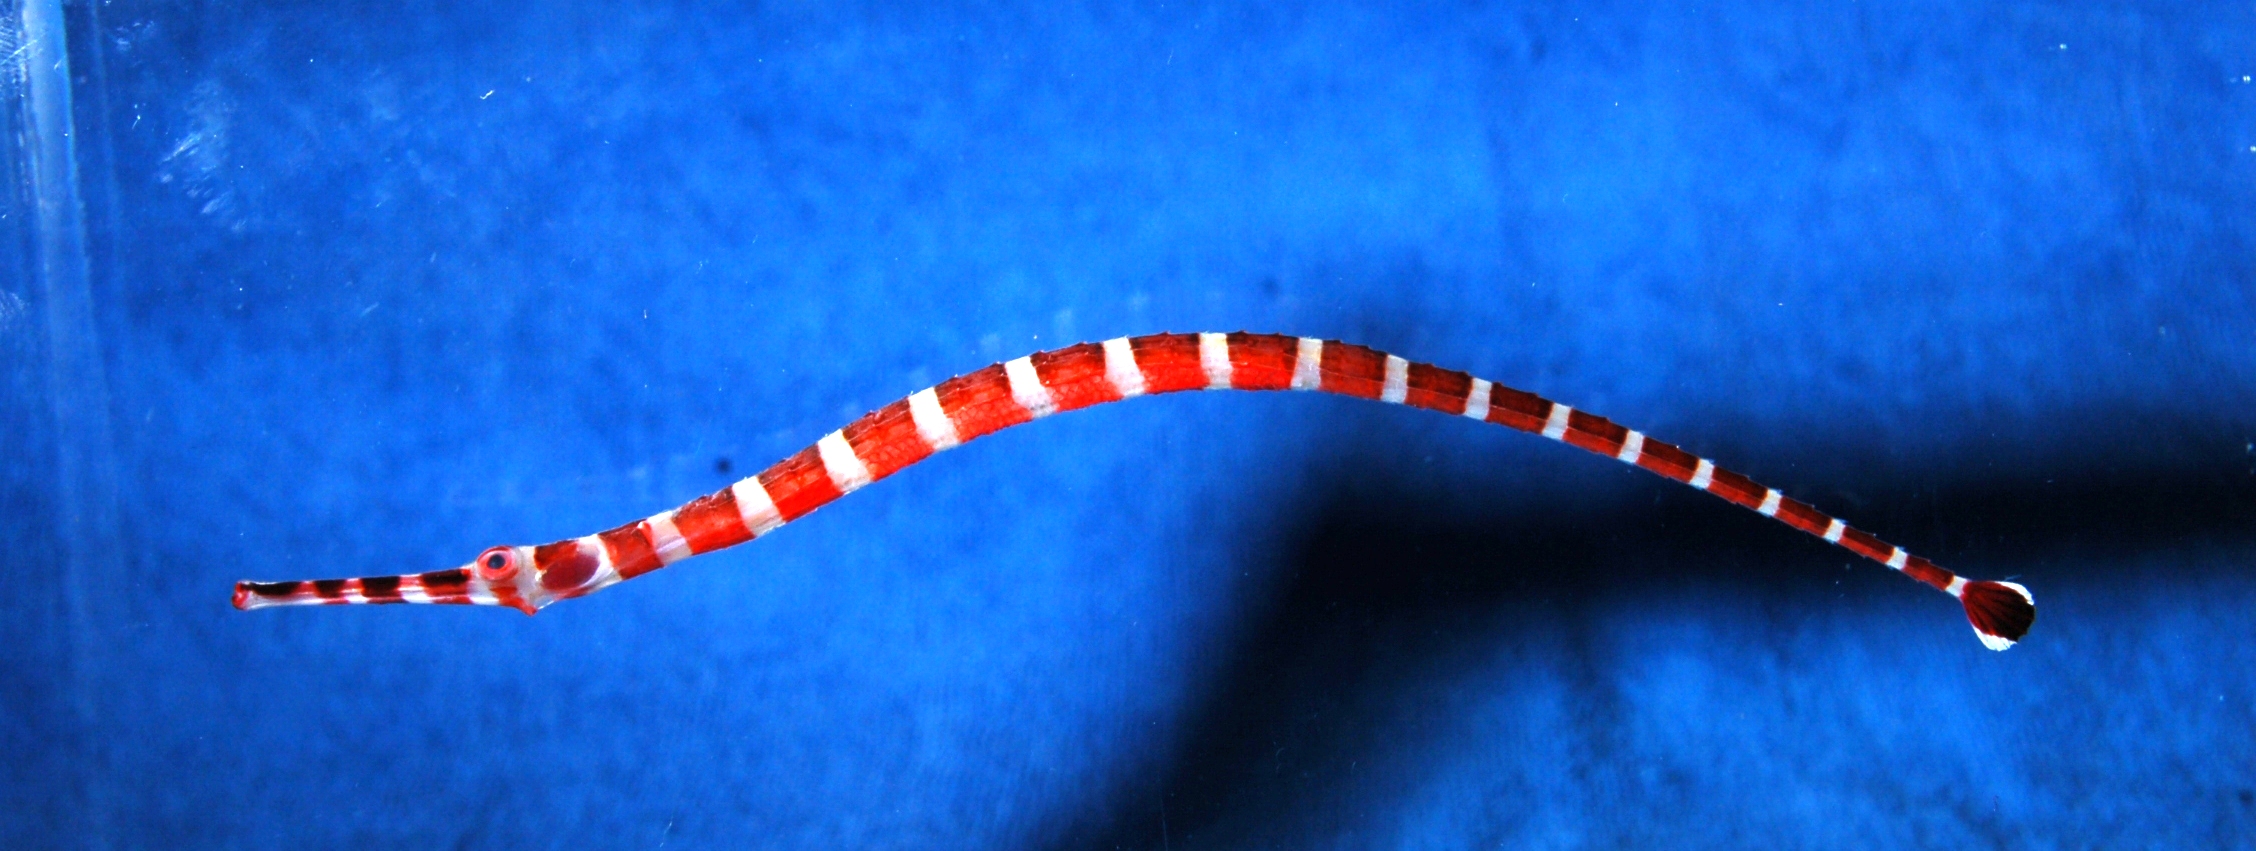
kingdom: Animalia
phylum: Chordata
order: Syngnathiformes
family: Syngnathidae
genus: Dunckerocampus
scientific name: Dunckerocampus boylei
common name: Broad-banded pipefish
